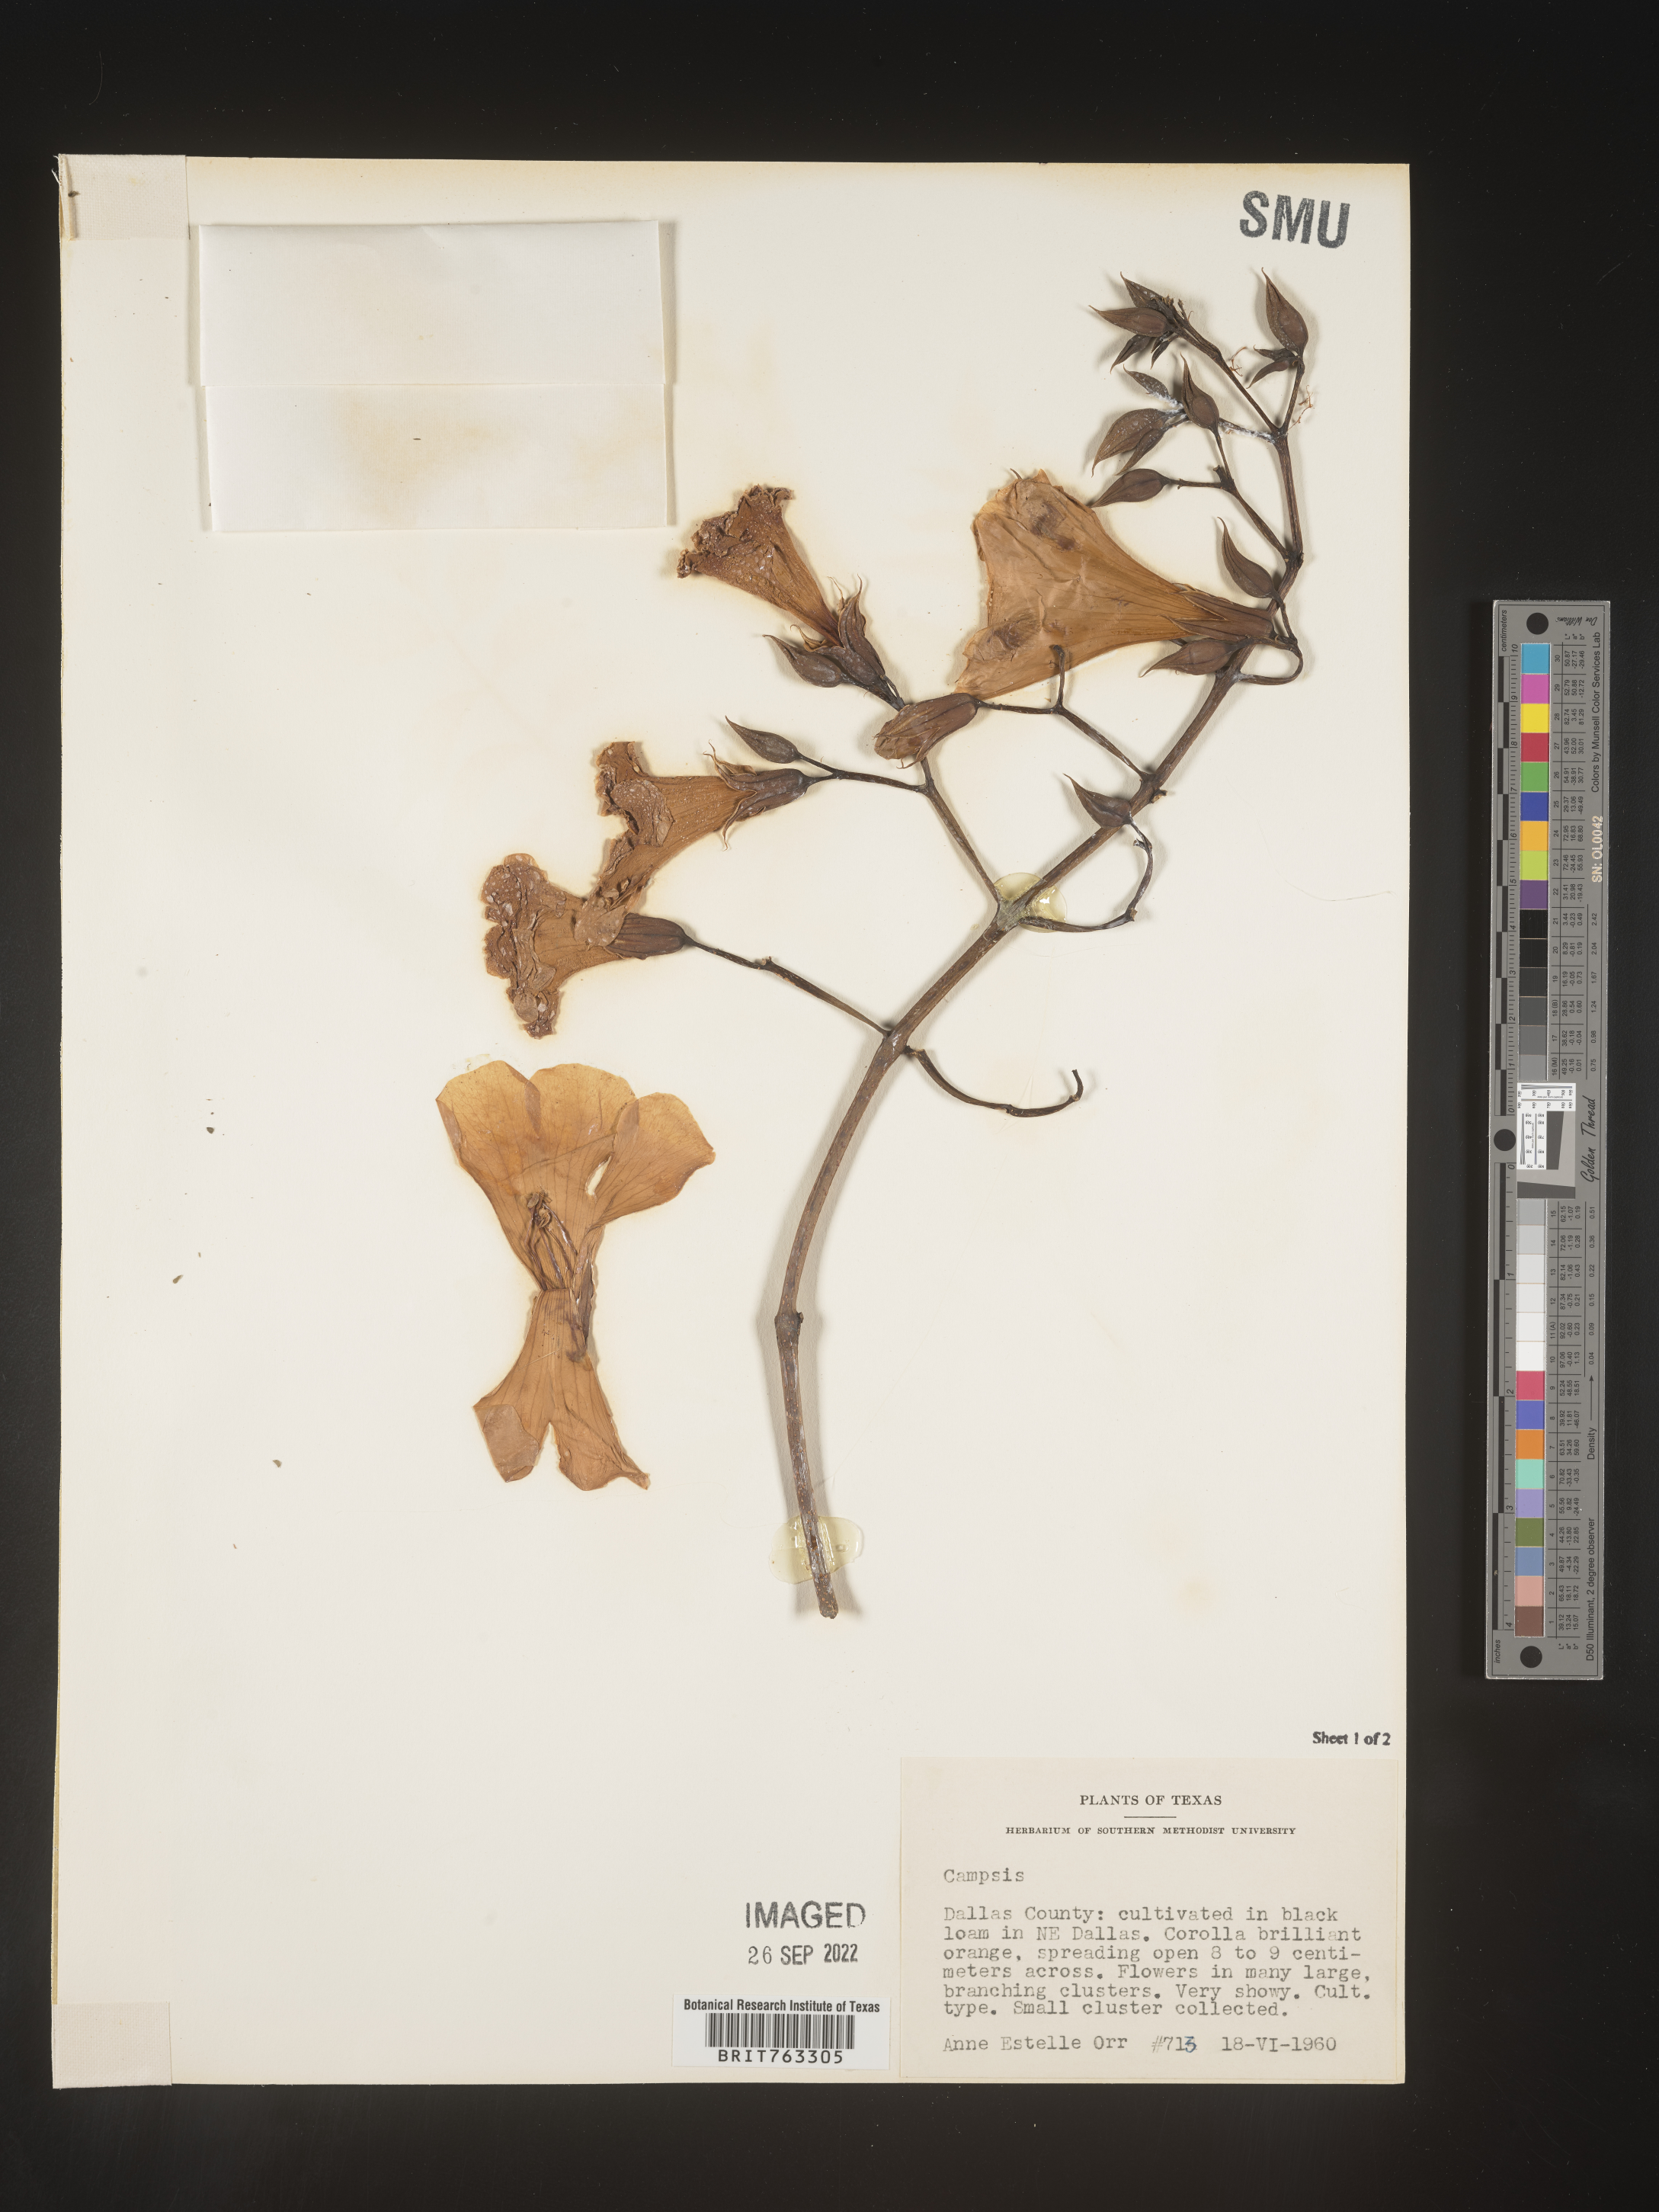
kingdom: Plantae
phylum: Tracheophyta
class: Magnoliopsida
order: Lamiales
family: Bignoniaceae
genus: Campsis
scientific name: Campsis
